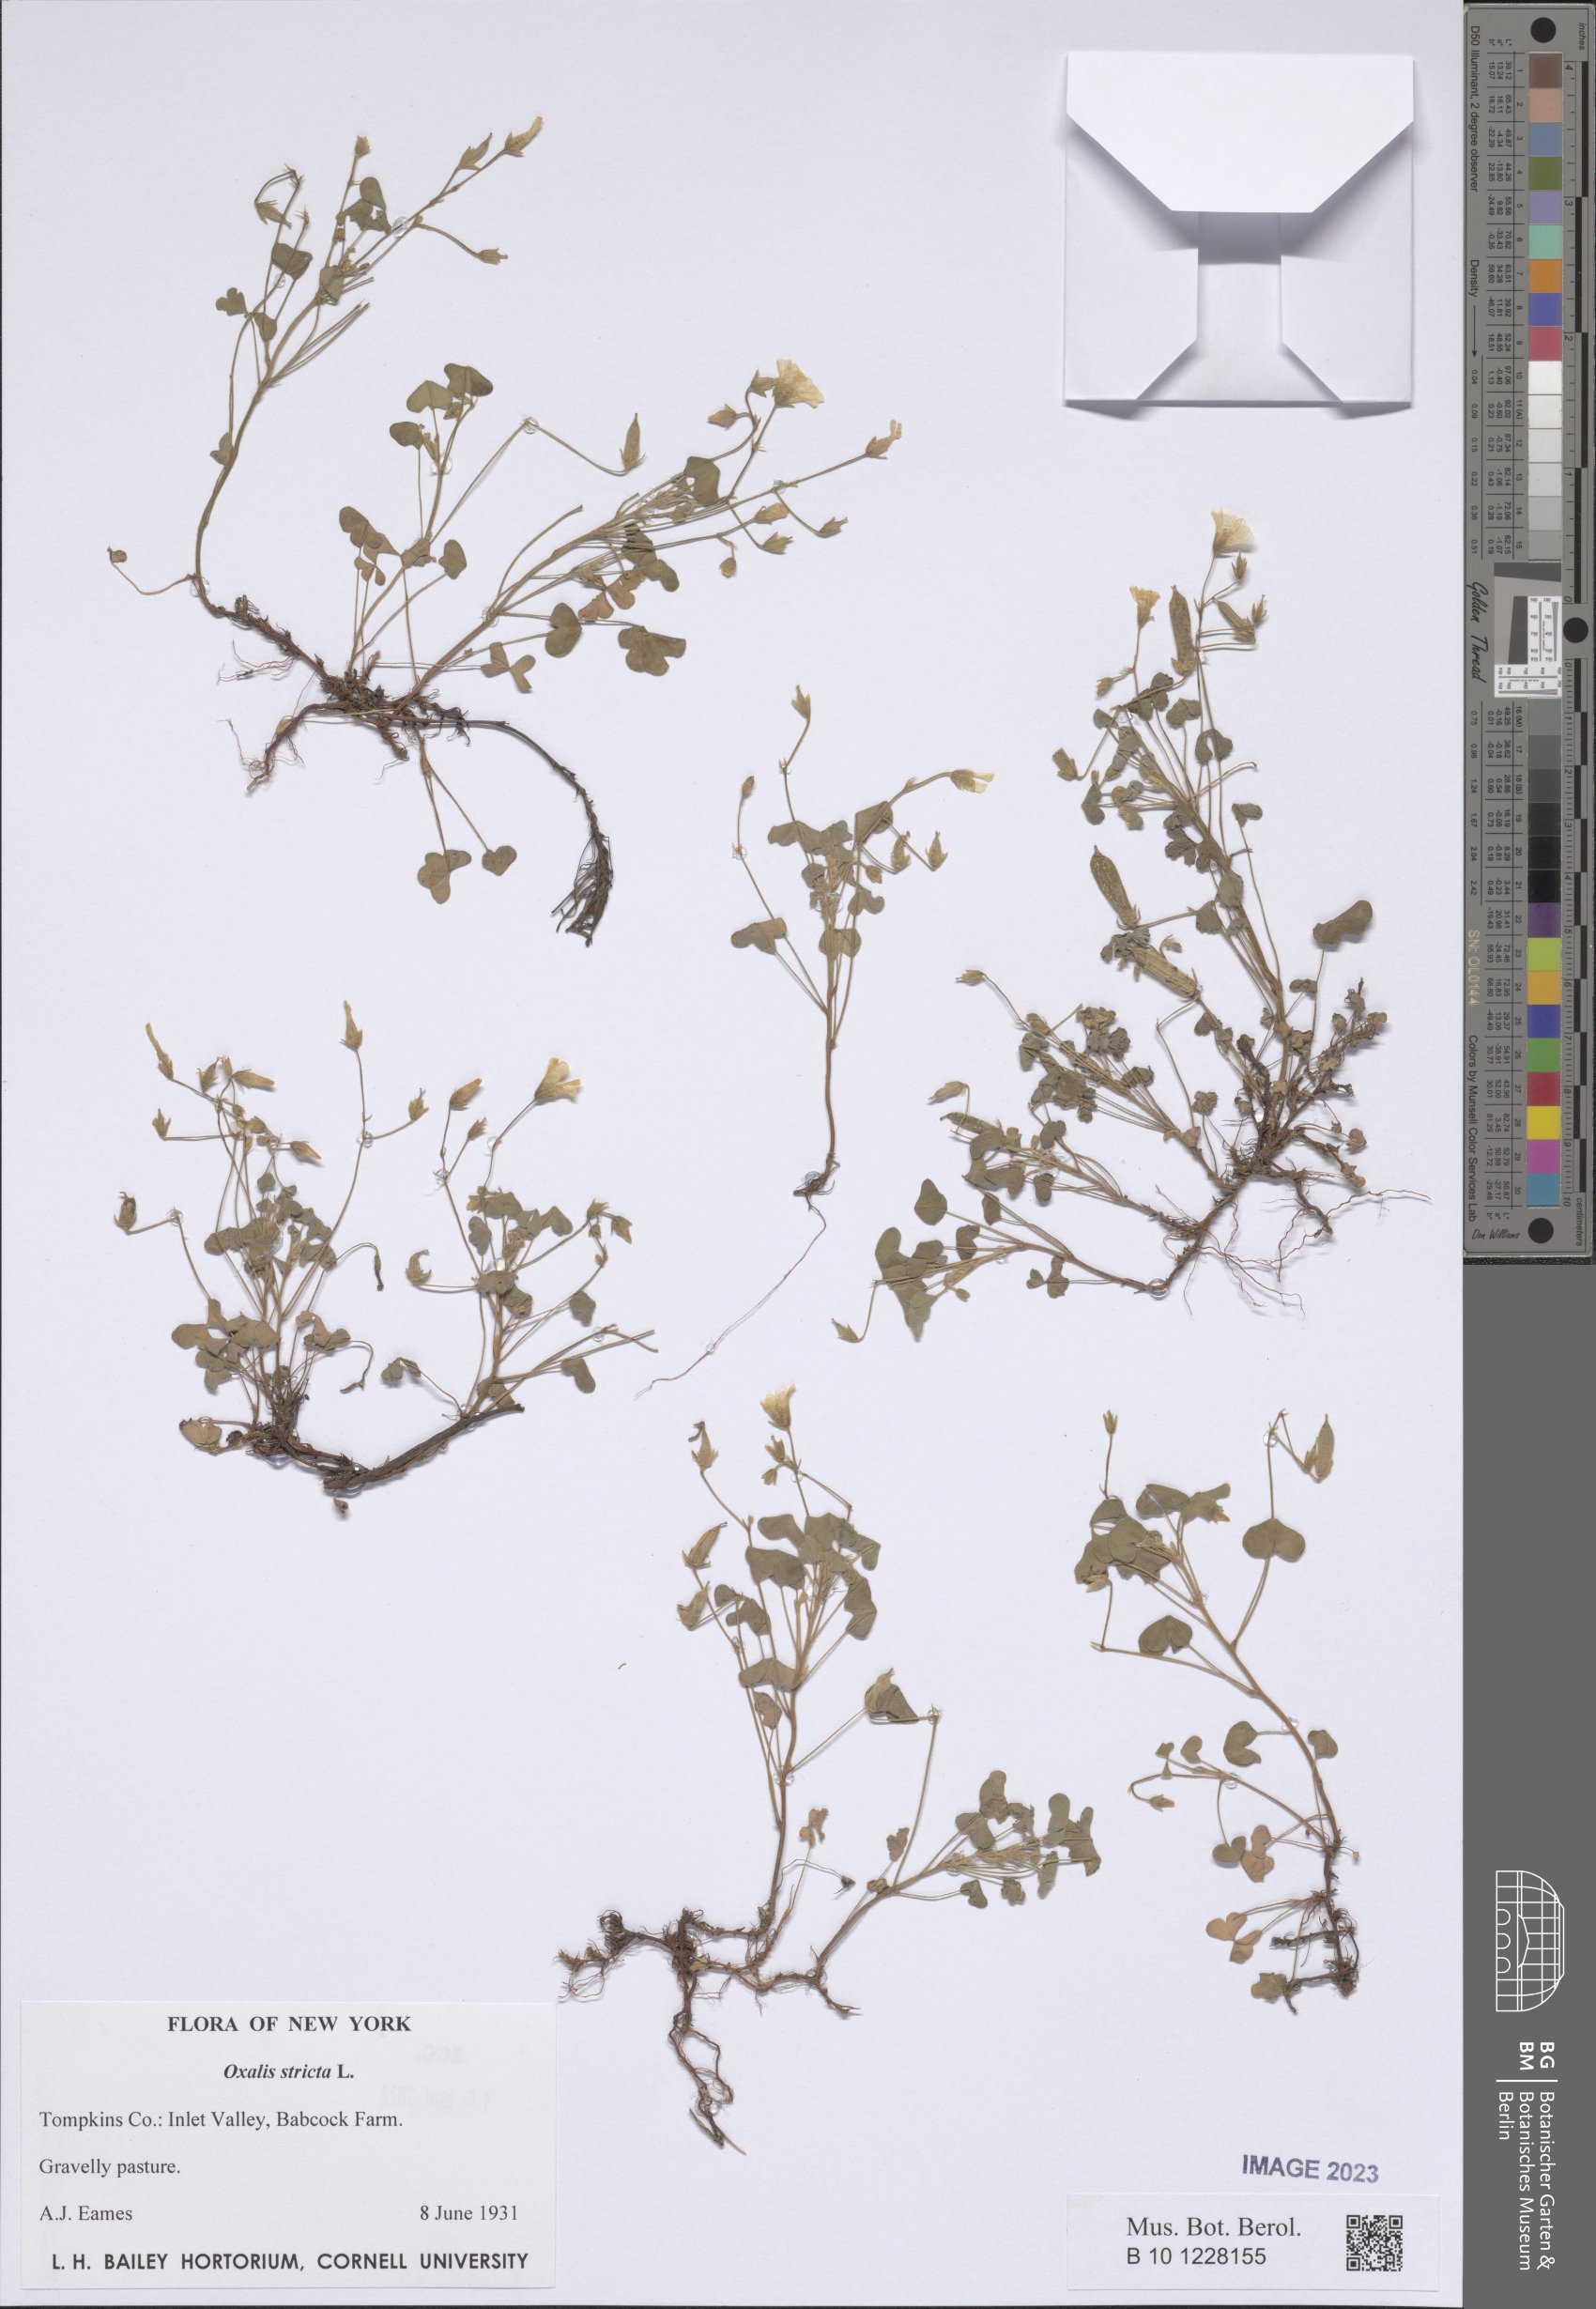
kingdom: Plantae
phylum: Tracheophyta
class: Magnoliopsida
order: Oxalidales
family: Oxalidaceae
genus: Oxalis
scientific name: Oxalis stricta
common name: Upright yellow-sorrel
